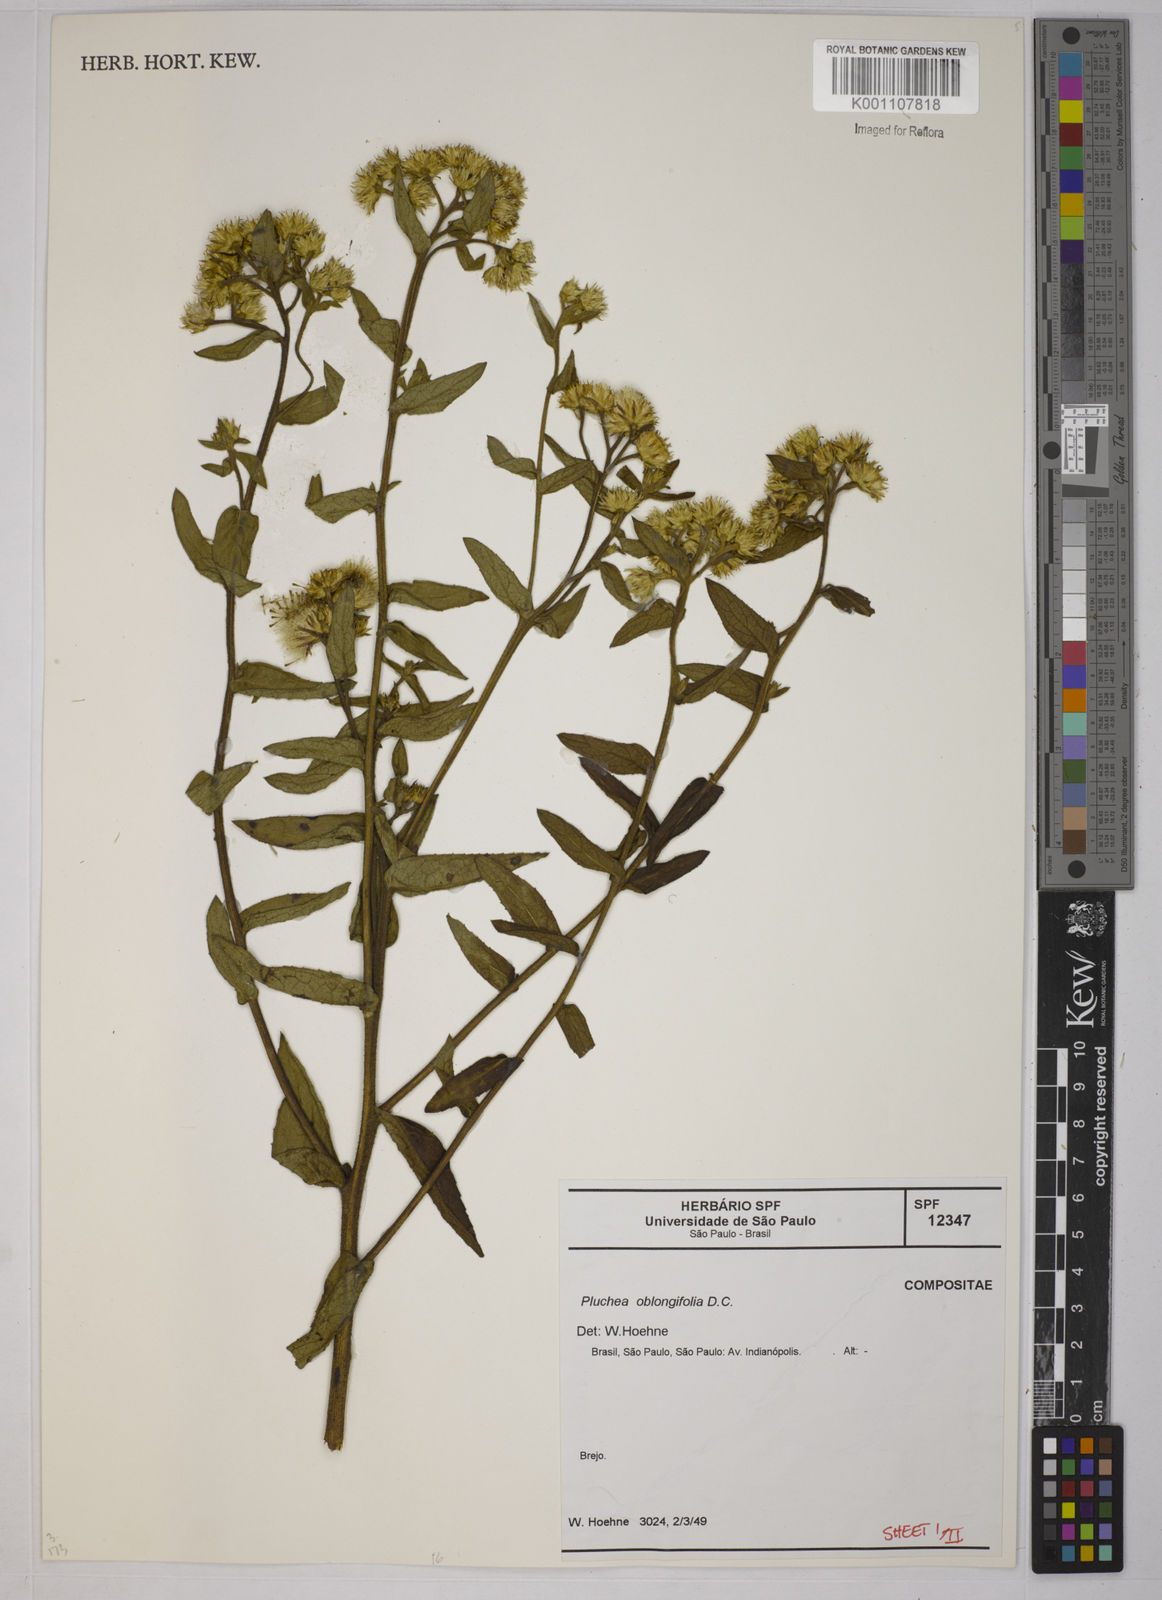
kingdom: Plantae
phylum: Tracheophyta
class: Magnoliopsida
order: Asterales
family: Asteraceae
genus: Pluchea
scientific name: Pluchea oblongifolia
